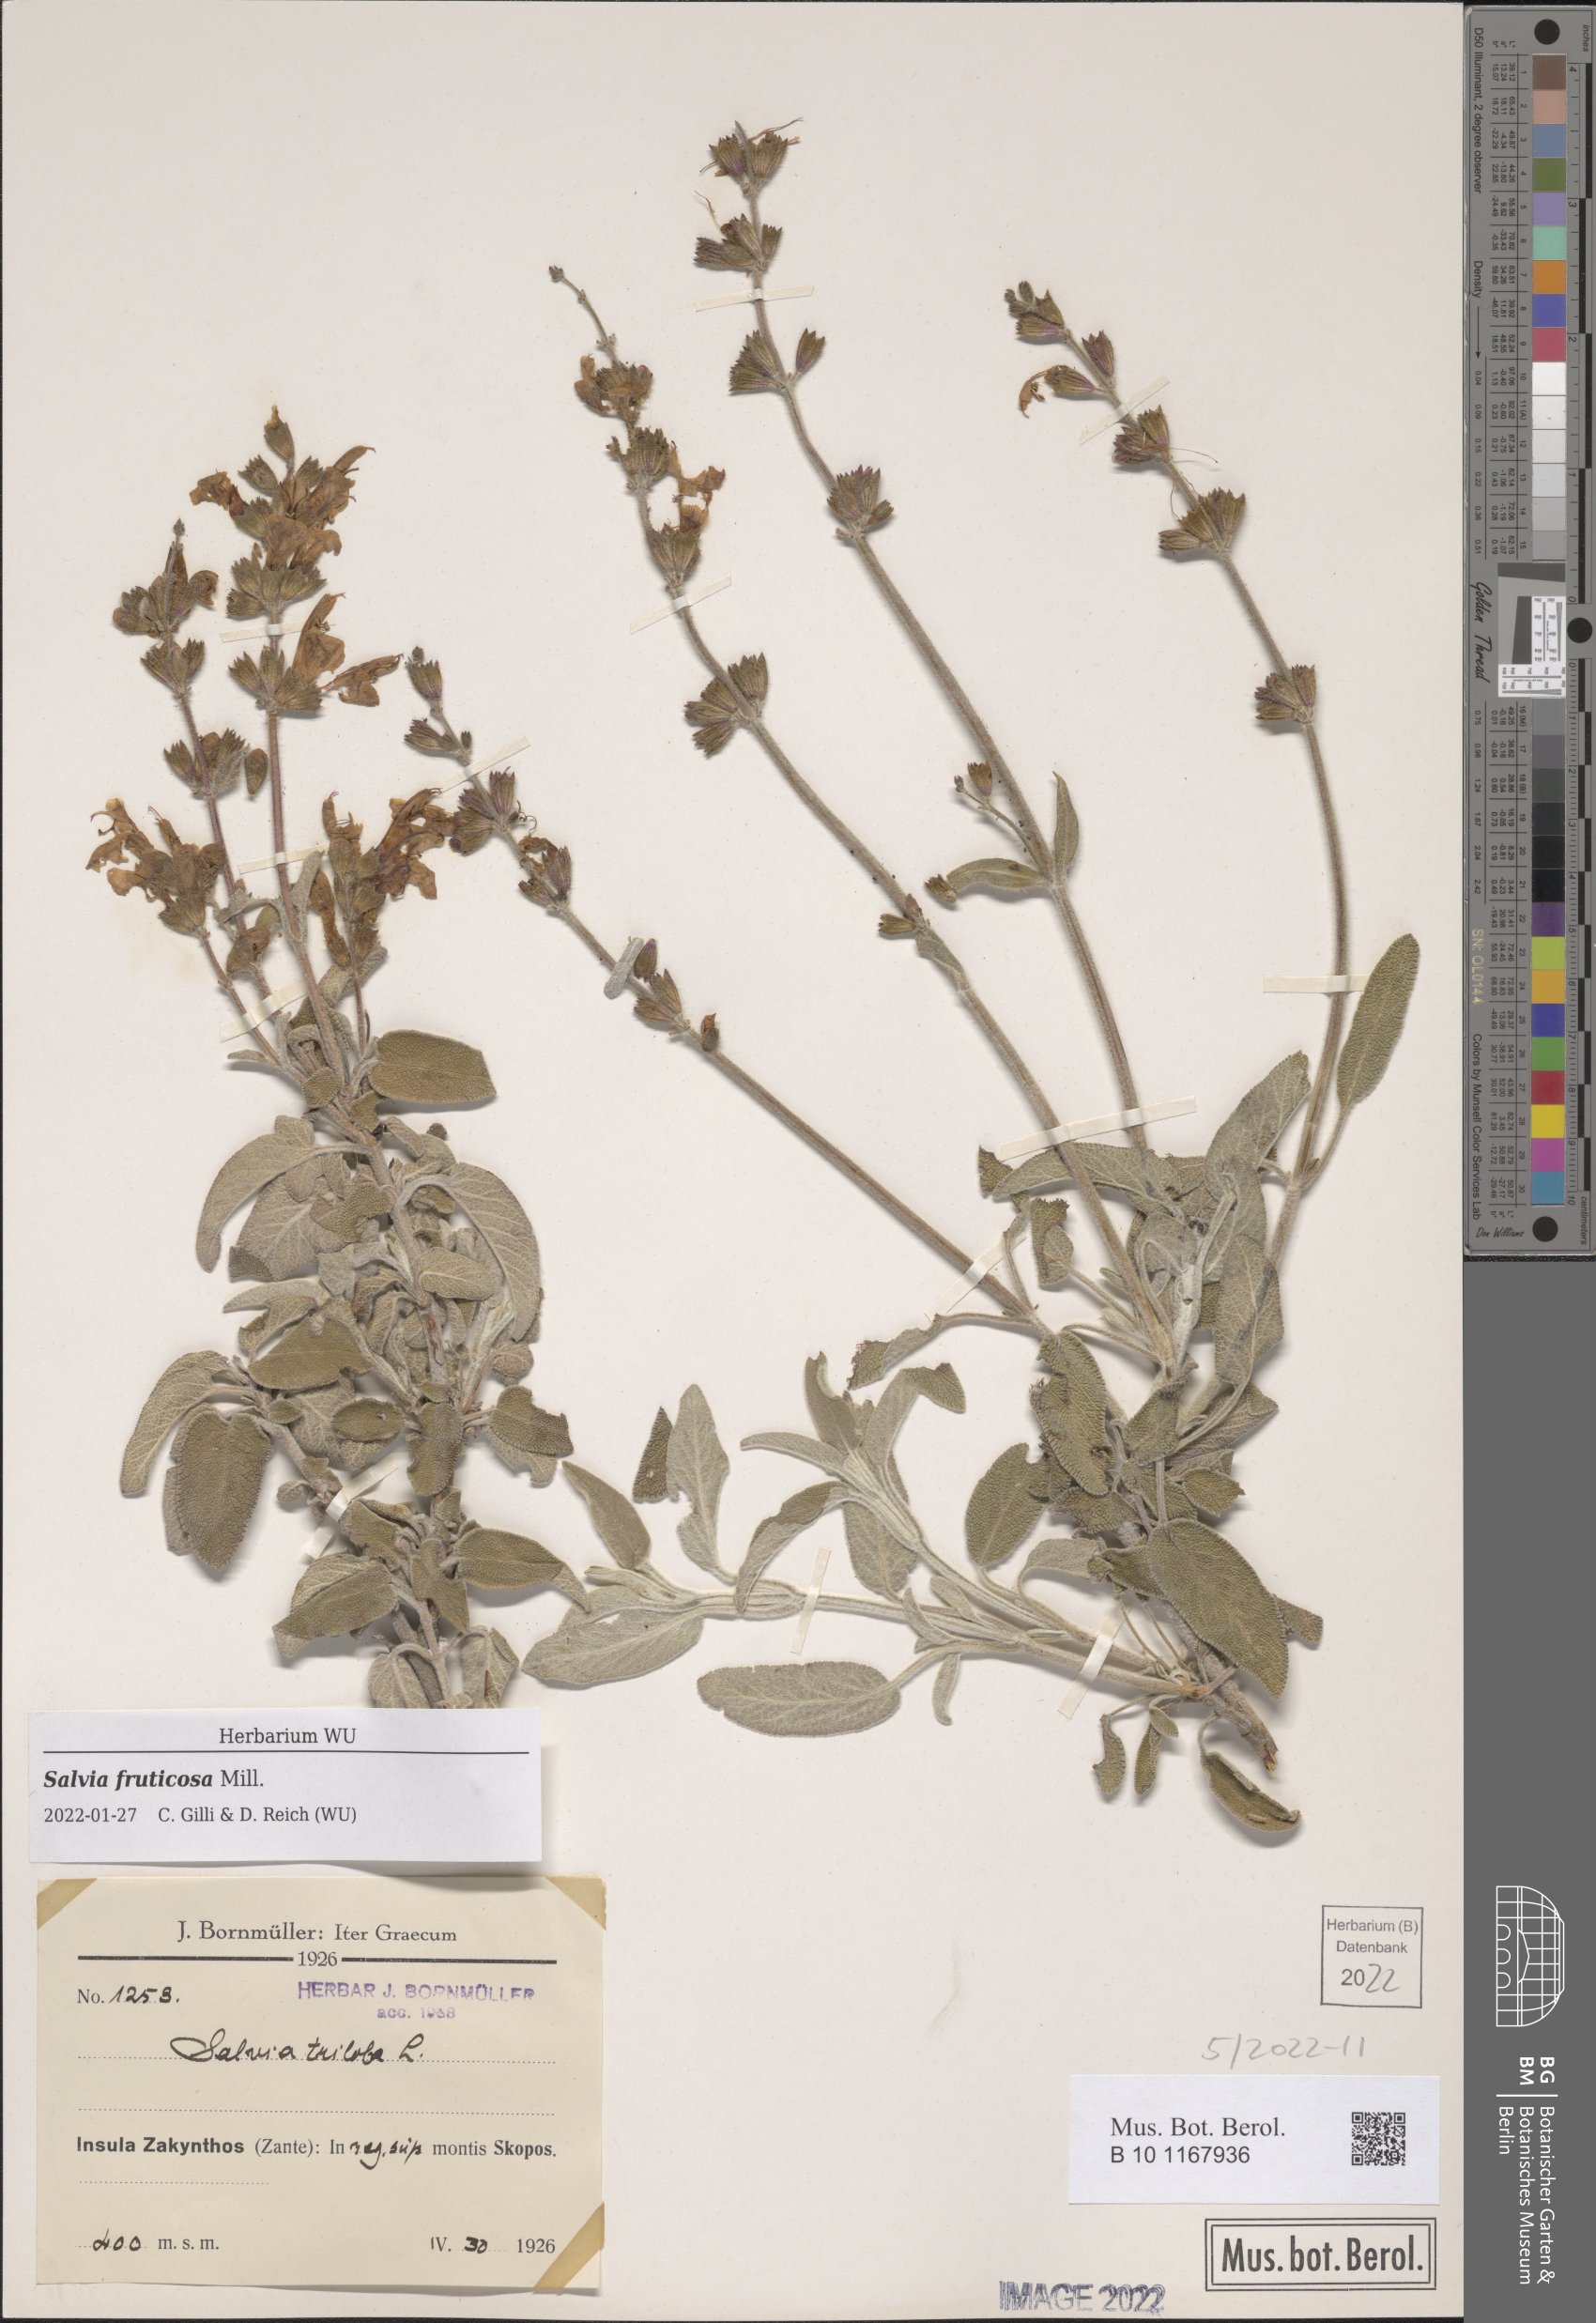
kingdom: Plantae
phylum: Tracheophyta
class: Magnoliopsida
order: Lamiales
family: Lamiaceae
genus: Salvia
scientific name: Salvia fruticosa
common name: Greek sage
